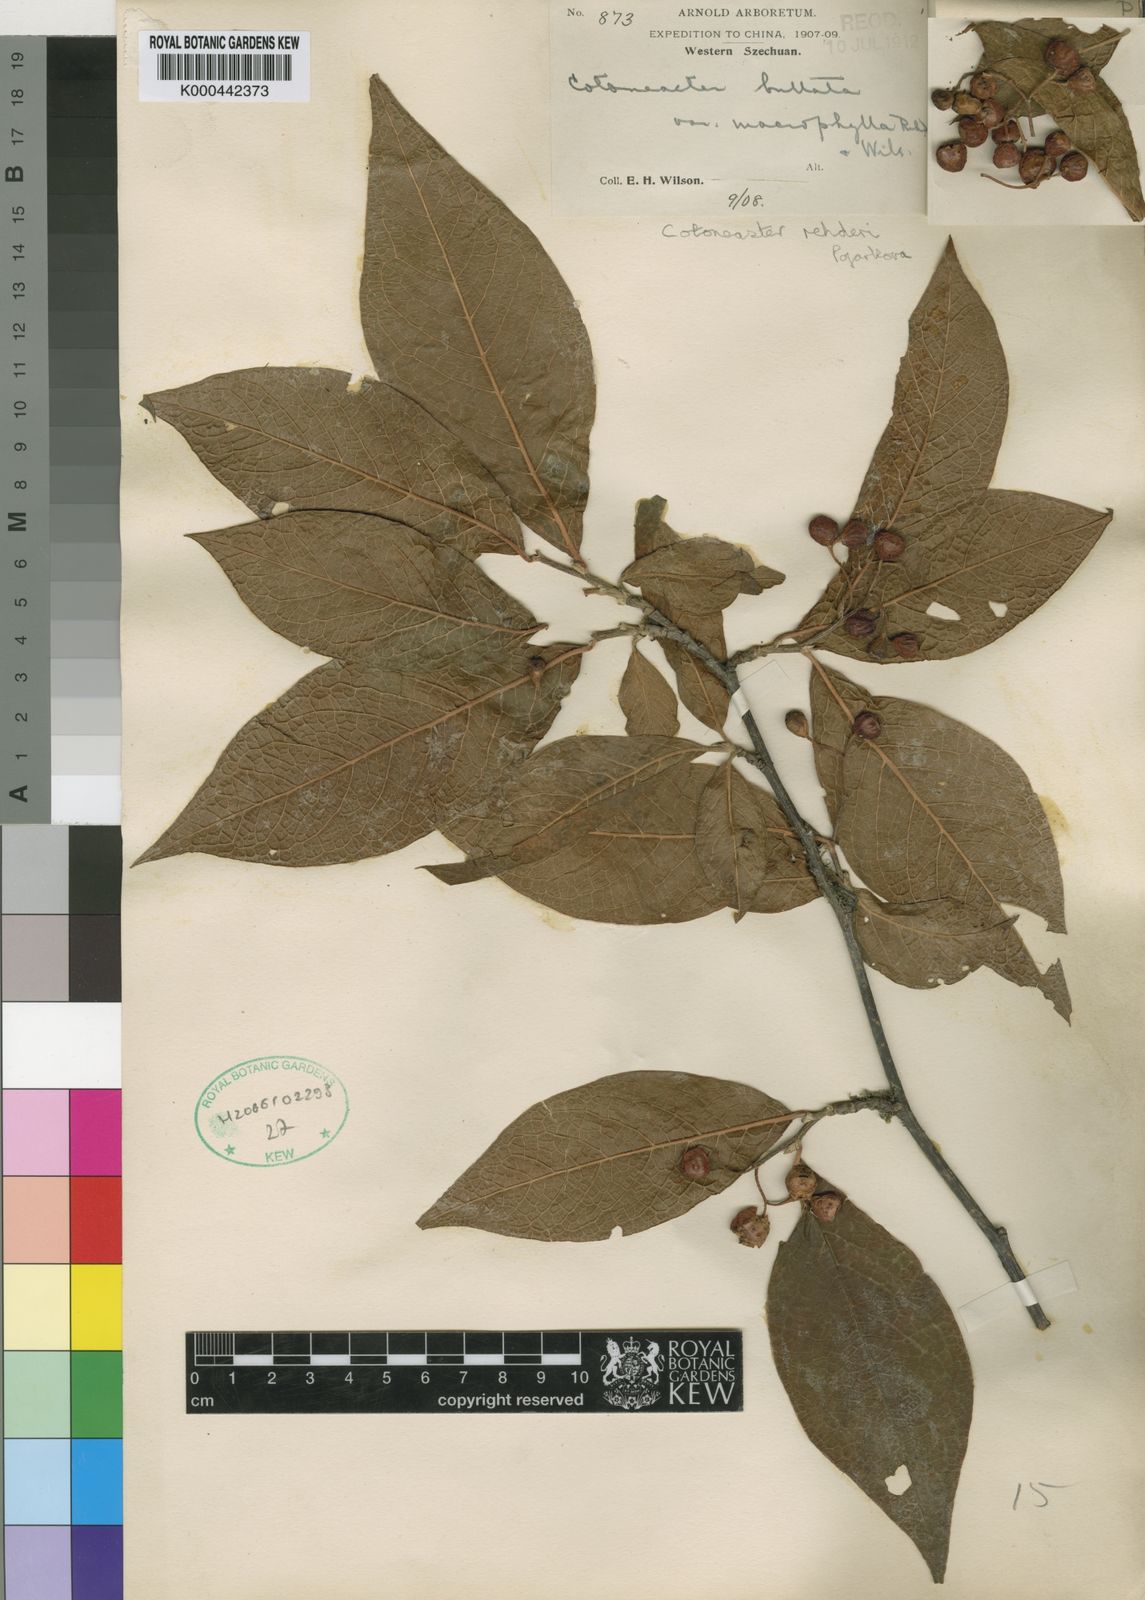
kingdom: Plantae
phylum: Tracheophyta
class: Magnoliopsida
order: Rosales
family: Rosaceae
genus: Cotoneaster
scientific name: Cotoneaster bullatus
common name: Hollyberry cotoneaster
